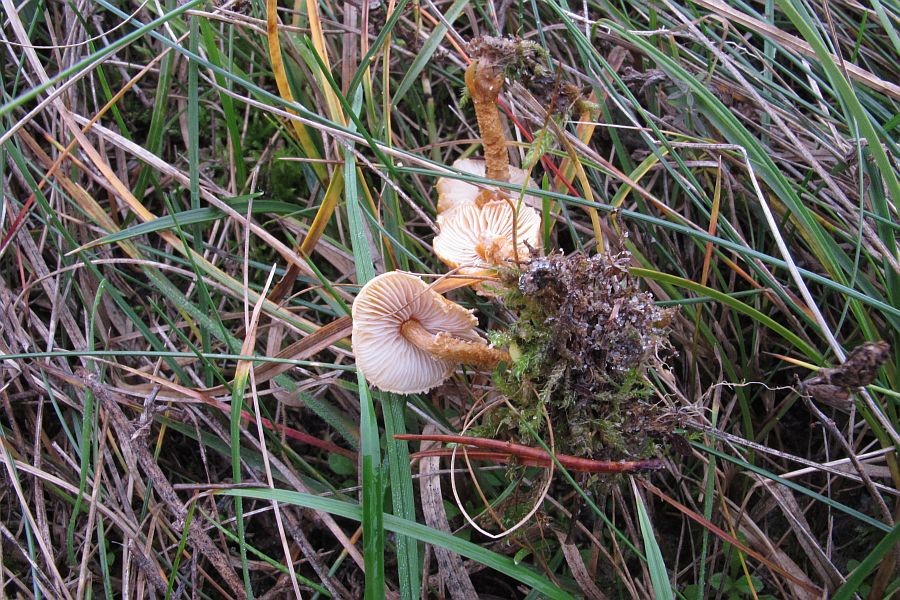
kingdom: Fungi
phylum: Basidiomycota
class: Agaricomycetes
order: Agaricales
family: Tricholomataceae
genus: Cystoderma
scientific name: Cystoderma amianthinum
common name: okkergul grynhat
